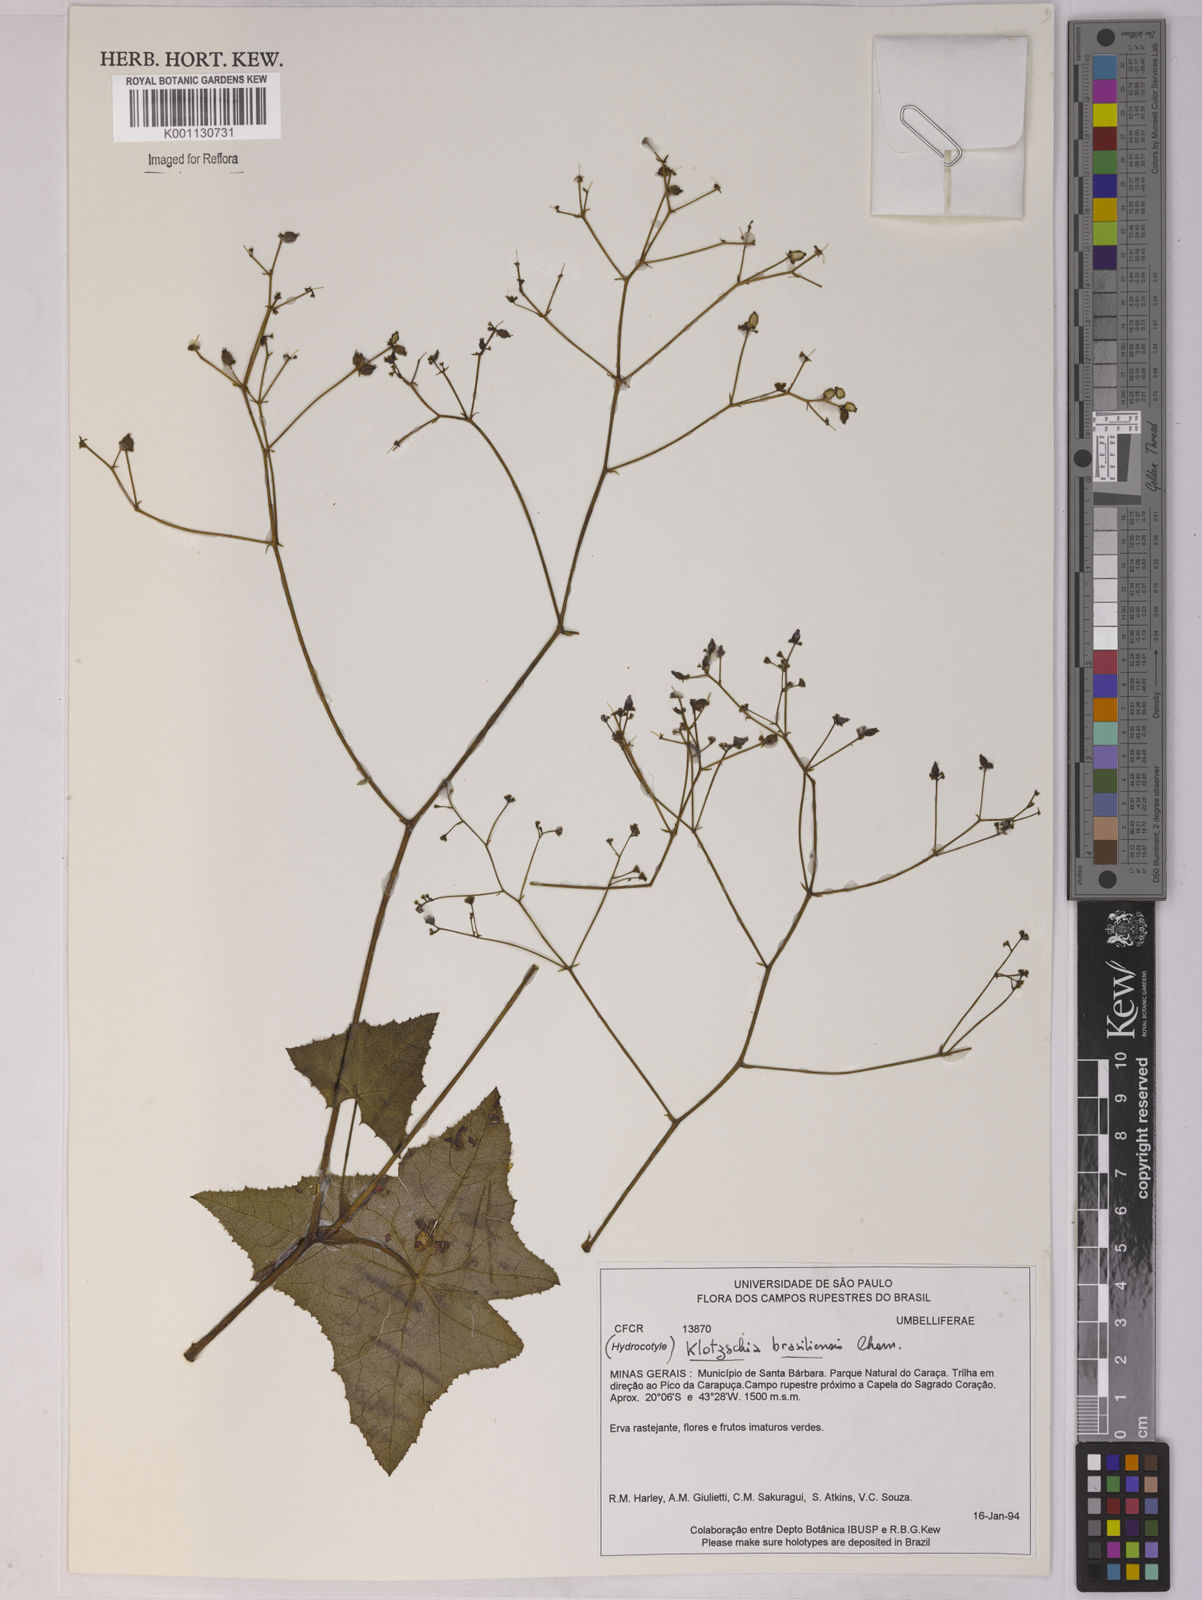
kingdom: Plantae
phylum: Tracheophyta
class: Magnoliopsida
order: Apiales
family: Apiaceae
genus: Klotzschia
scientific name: Klotzschia brasiliensis
